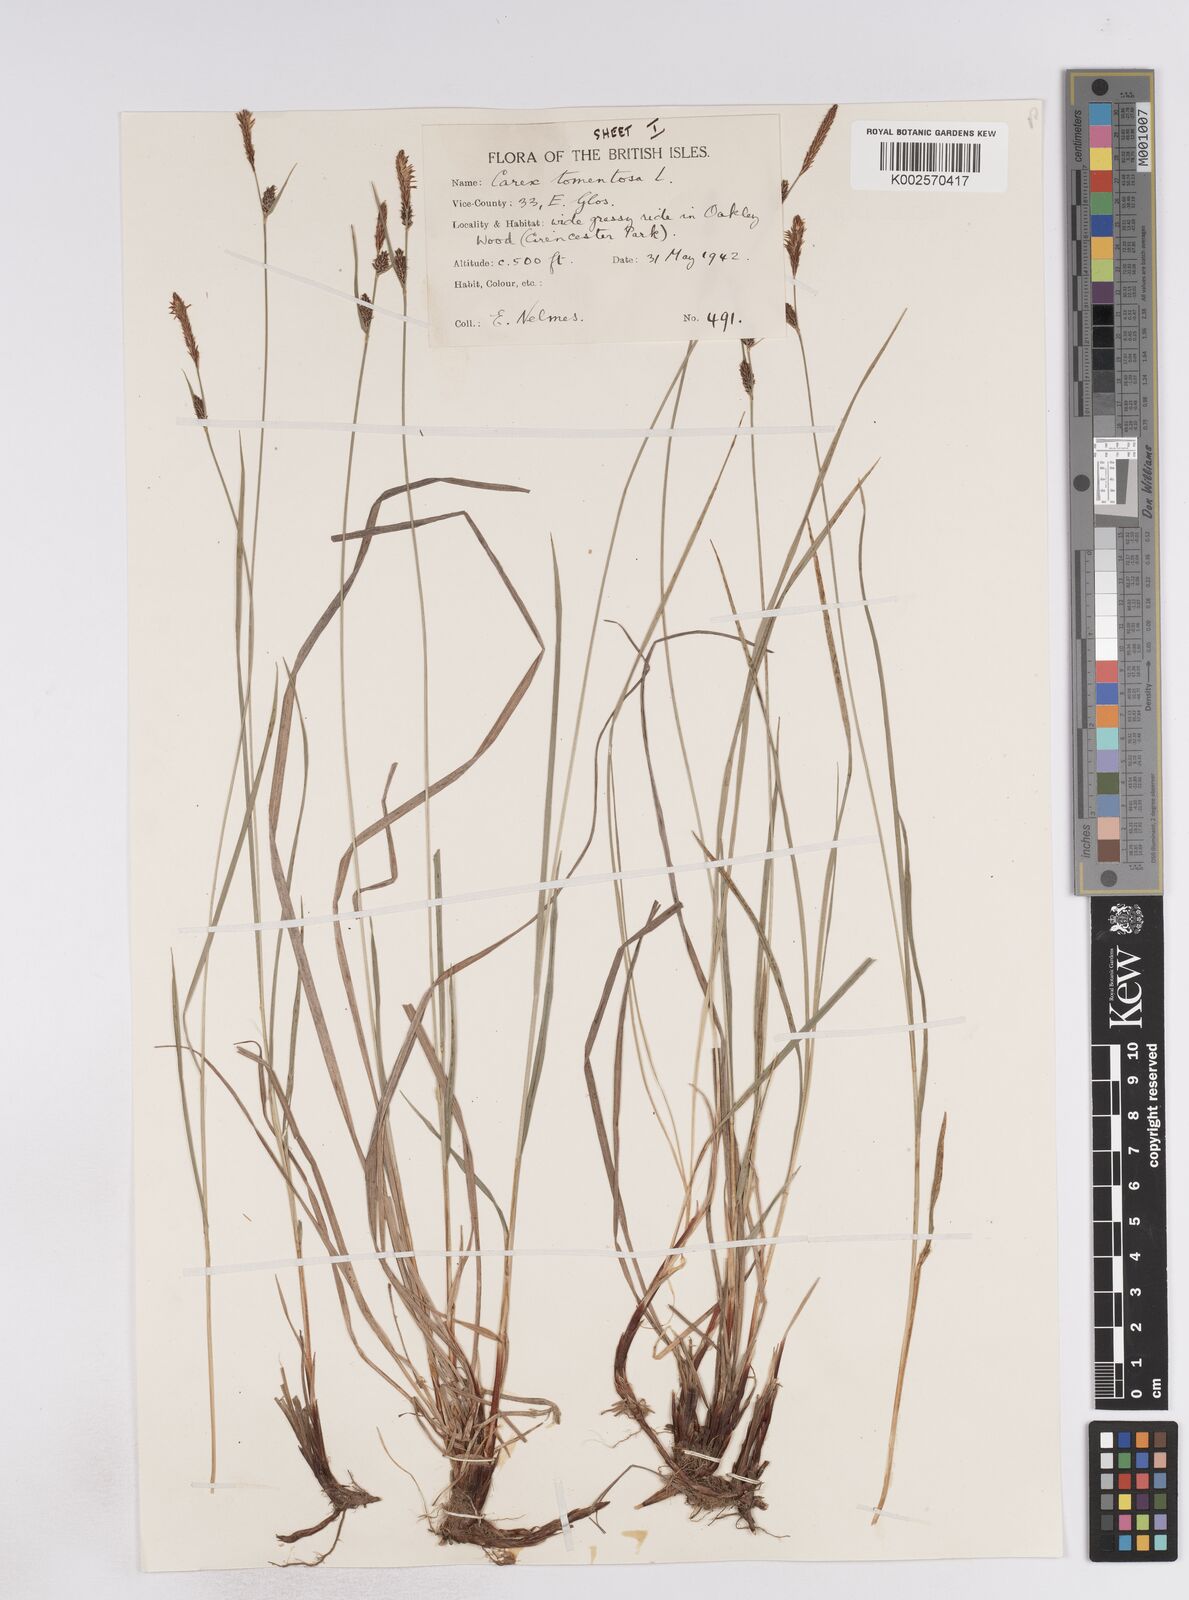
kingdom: Plantae
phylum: Tracheophyta
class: Liliopsida
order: Poales
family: Cyperaceae
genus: Carex
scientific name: Carex montana
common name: Soft-leaved sedge
